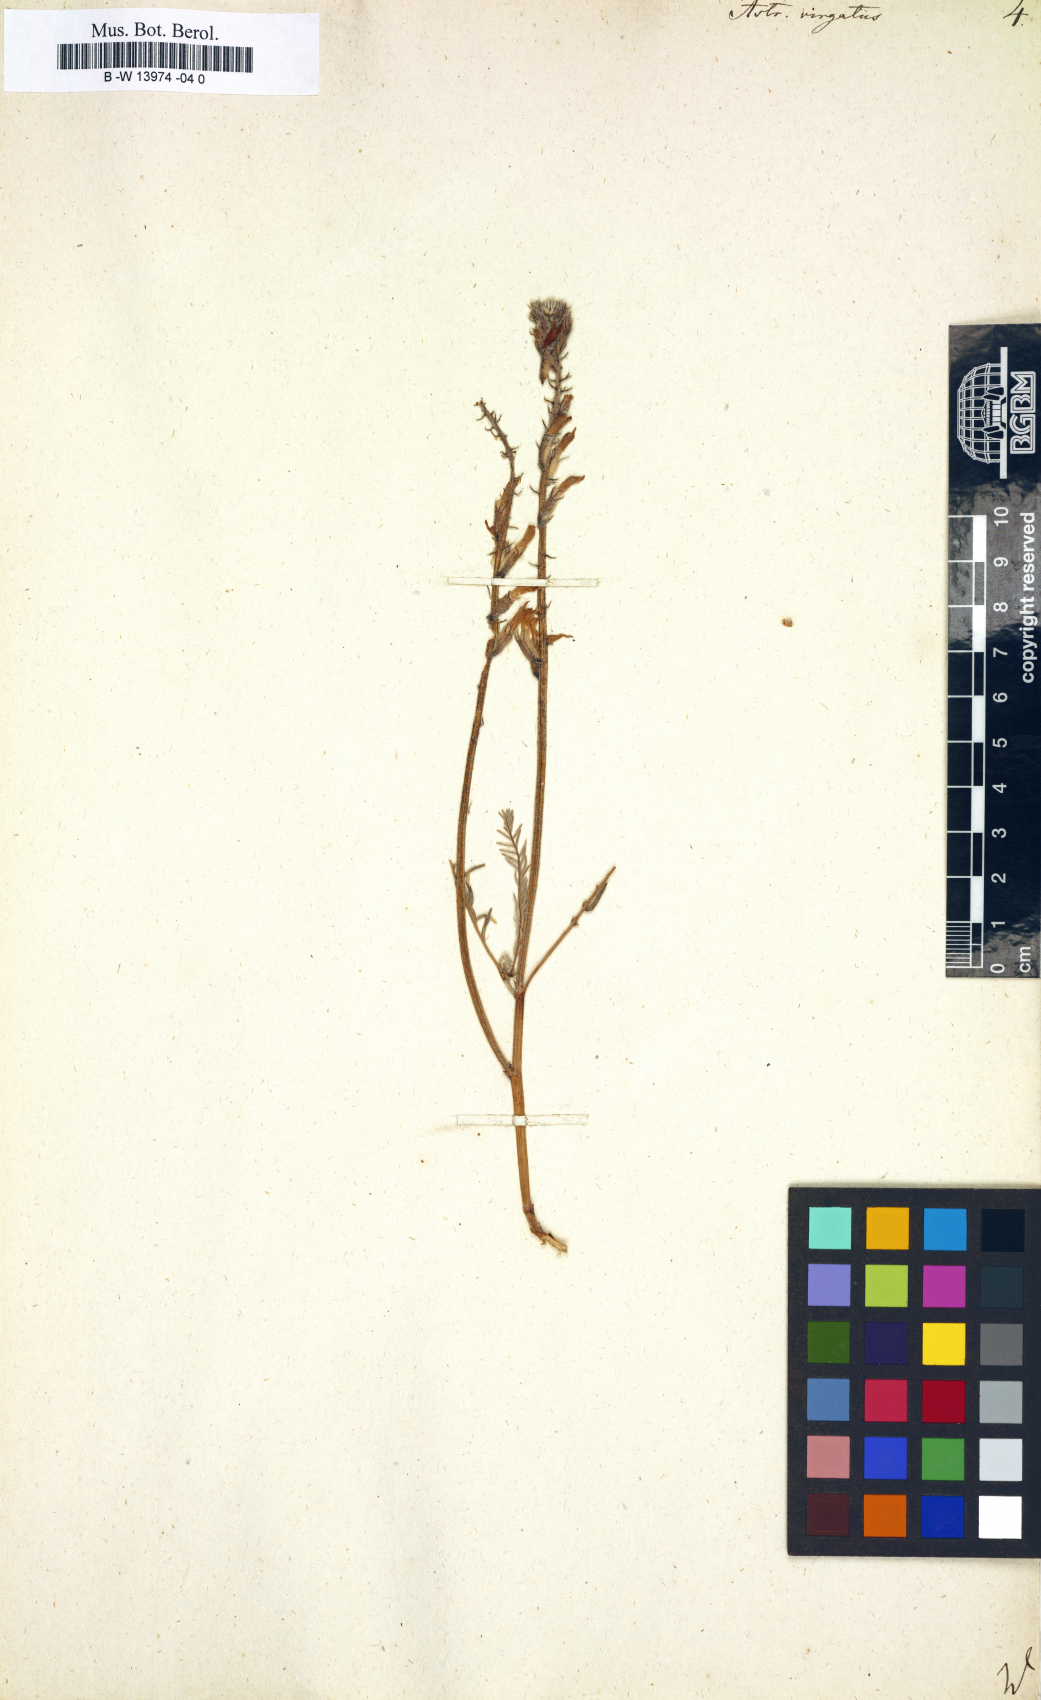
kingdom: Plantae
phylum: Tracheophyta
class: Magnoliopsida
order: Fabales
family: Fabaceae
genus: Astragalus
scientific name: Astragalus varius
